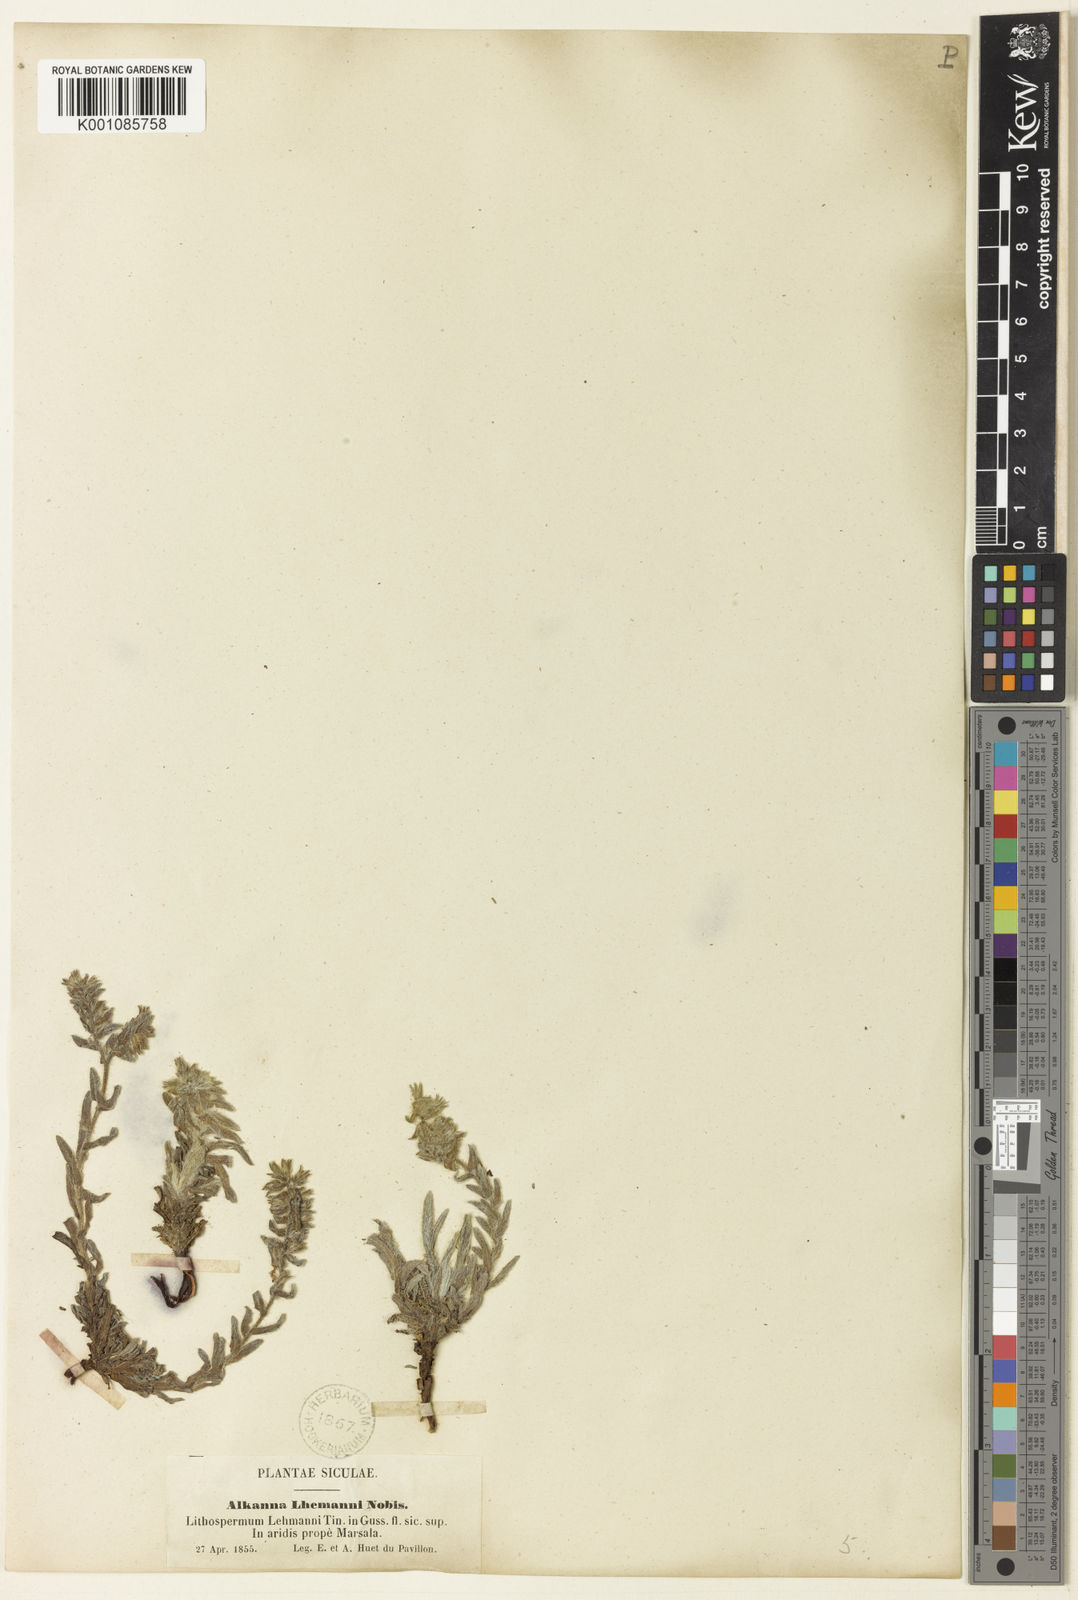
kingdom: Plantae
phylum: Tracheophyta
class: Magnoliopsida
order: Boraginales
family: Boraginaceae
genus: Alkanna
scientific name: Alkanna tinctoria
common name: Dyer's-alkanet
